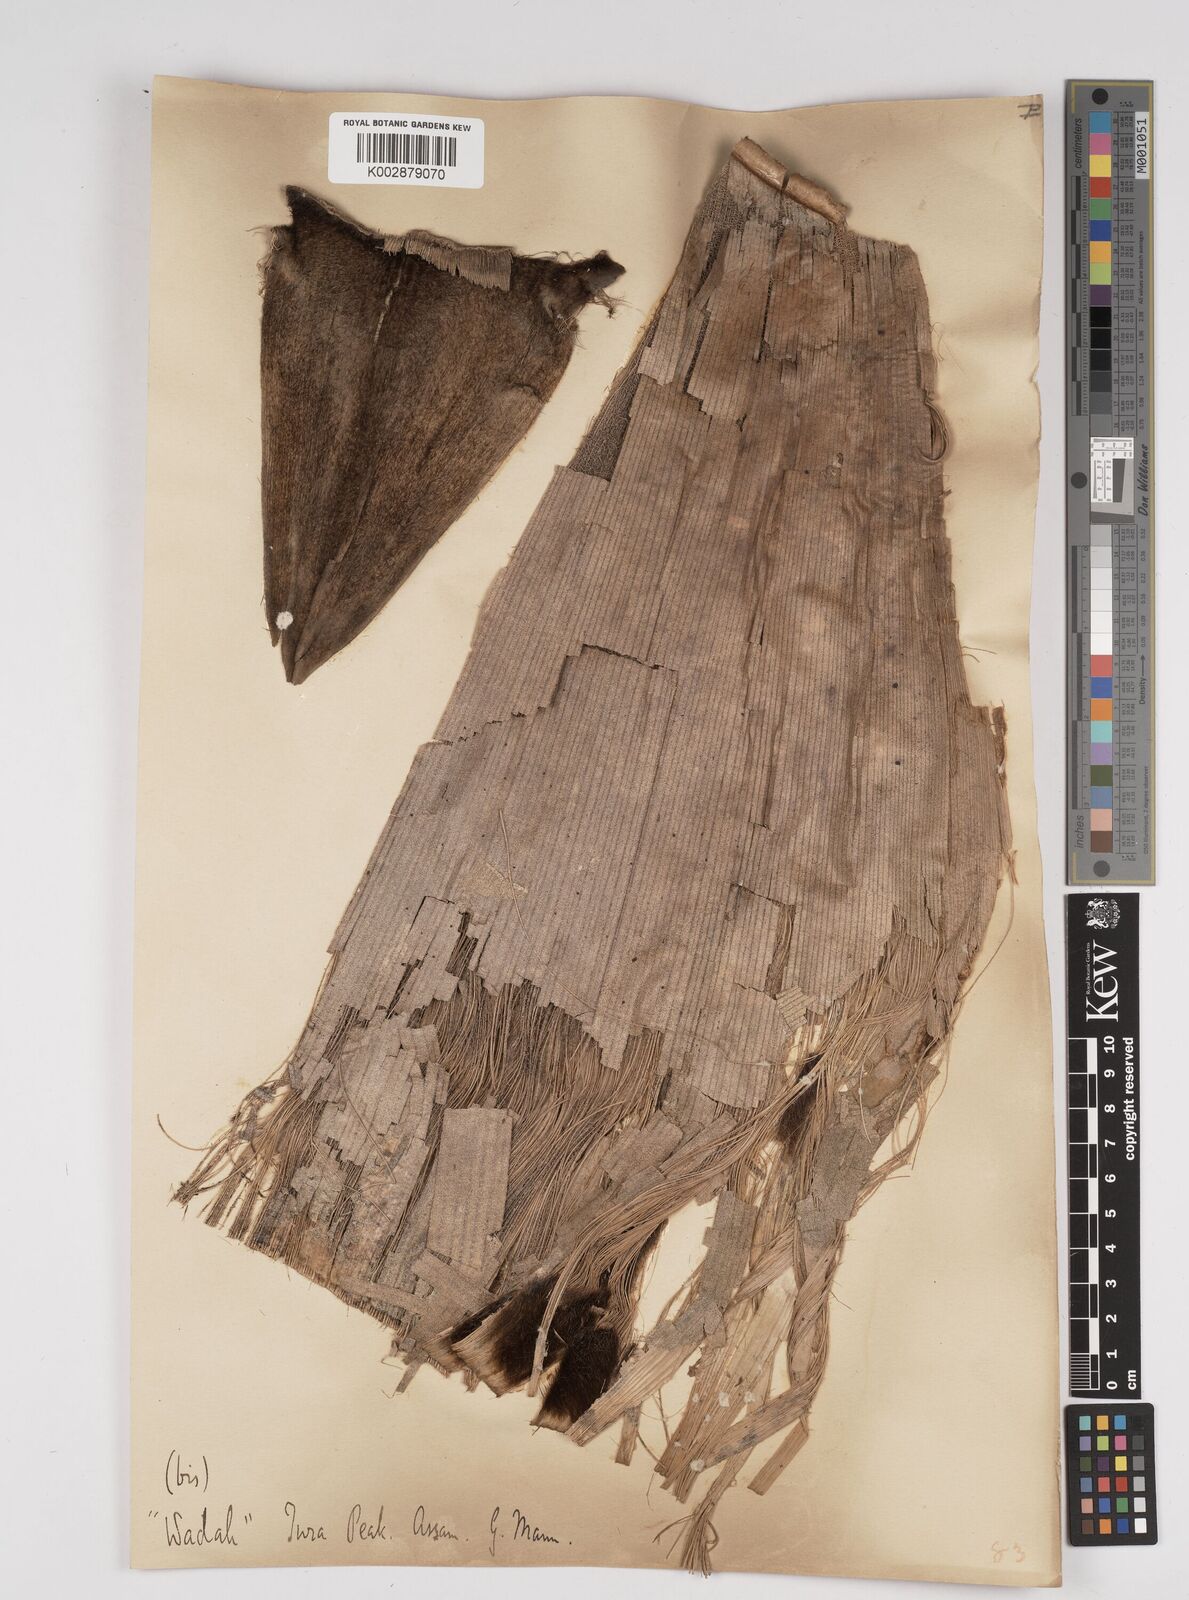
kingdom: Plantae
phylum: Tracheophyta
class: Liliopsida
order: Poales
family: Poaceae
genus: Dendrocalamus
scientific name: Dendrocalamus sikkimensis
